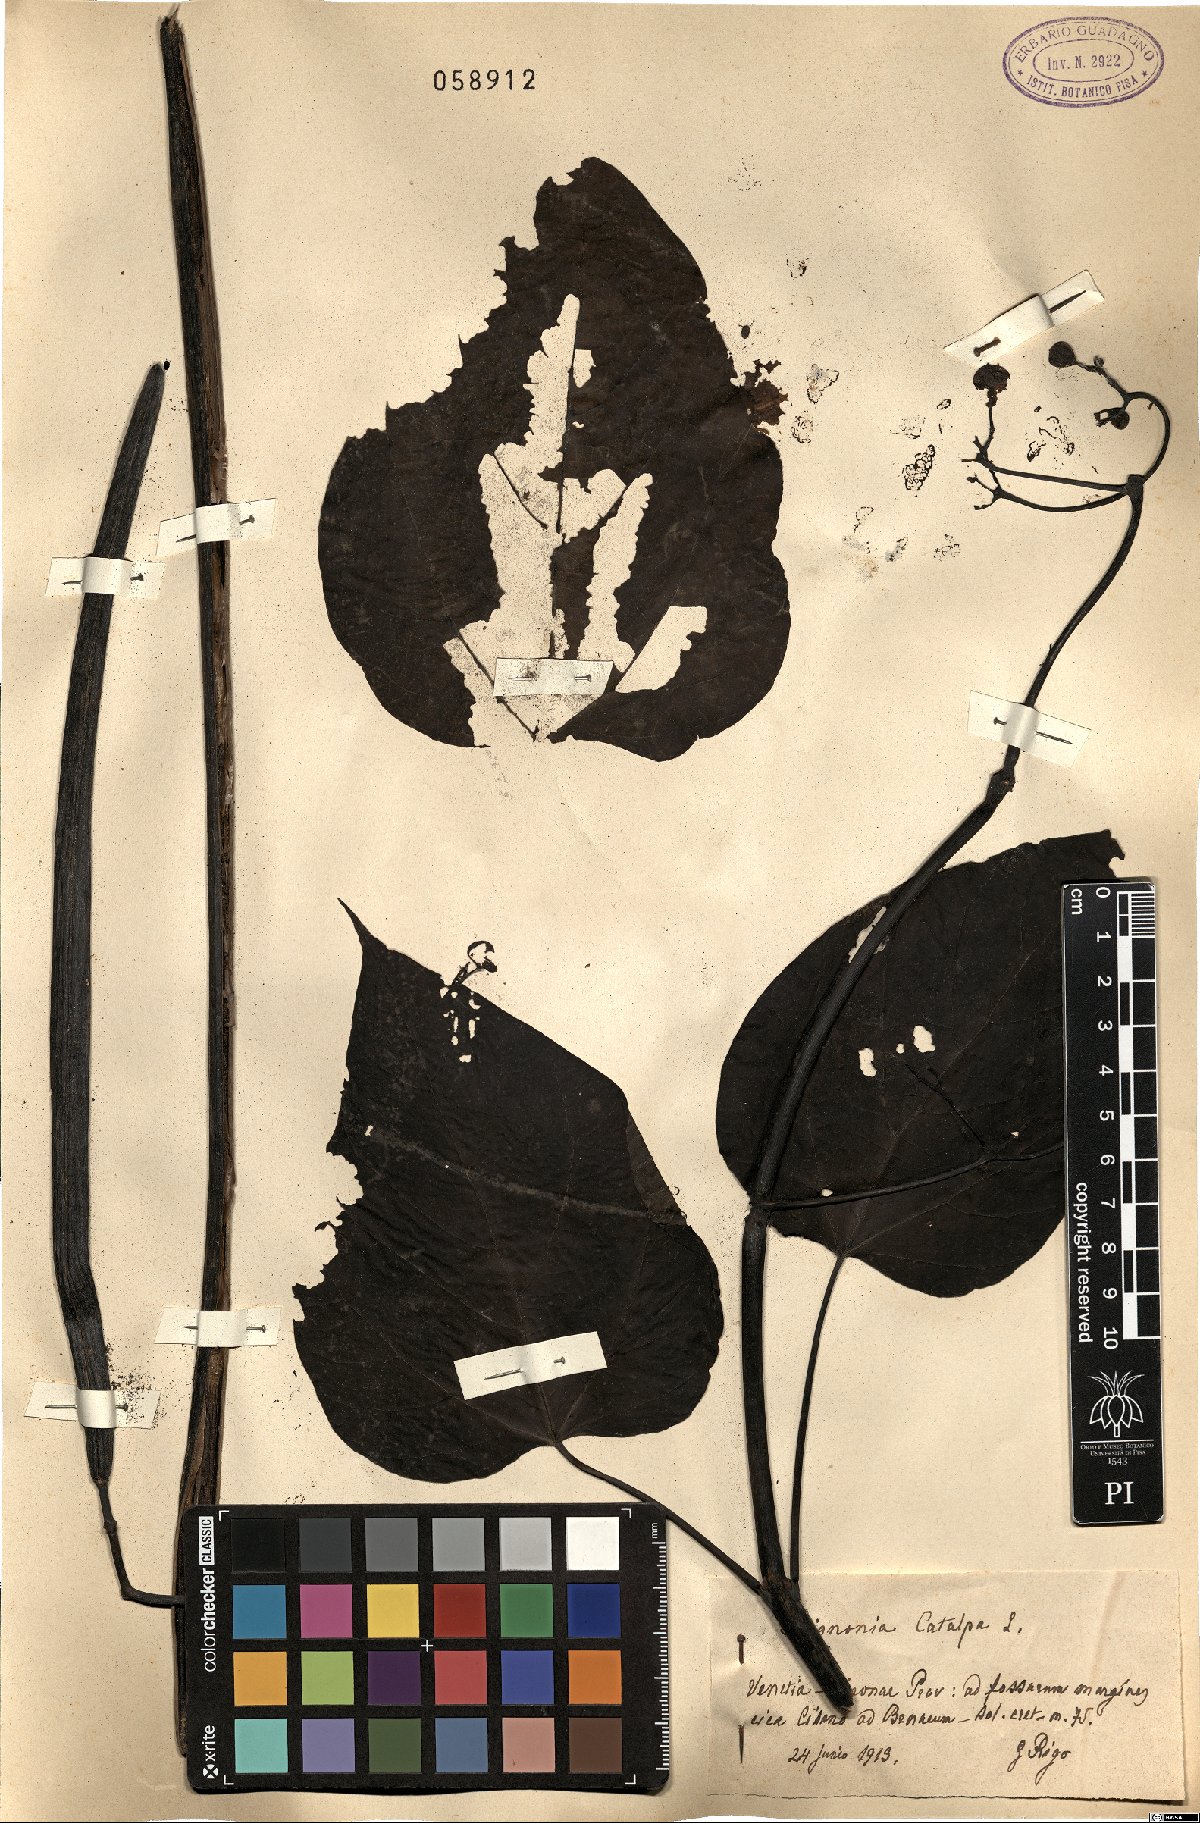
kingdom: Plantae
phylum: Tracheophyta
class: Magnoliopsida
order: Lamiales
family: Bignoniaceae
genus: Catalpa
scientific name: Catalpa bignonioides
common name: Southern catalpa
